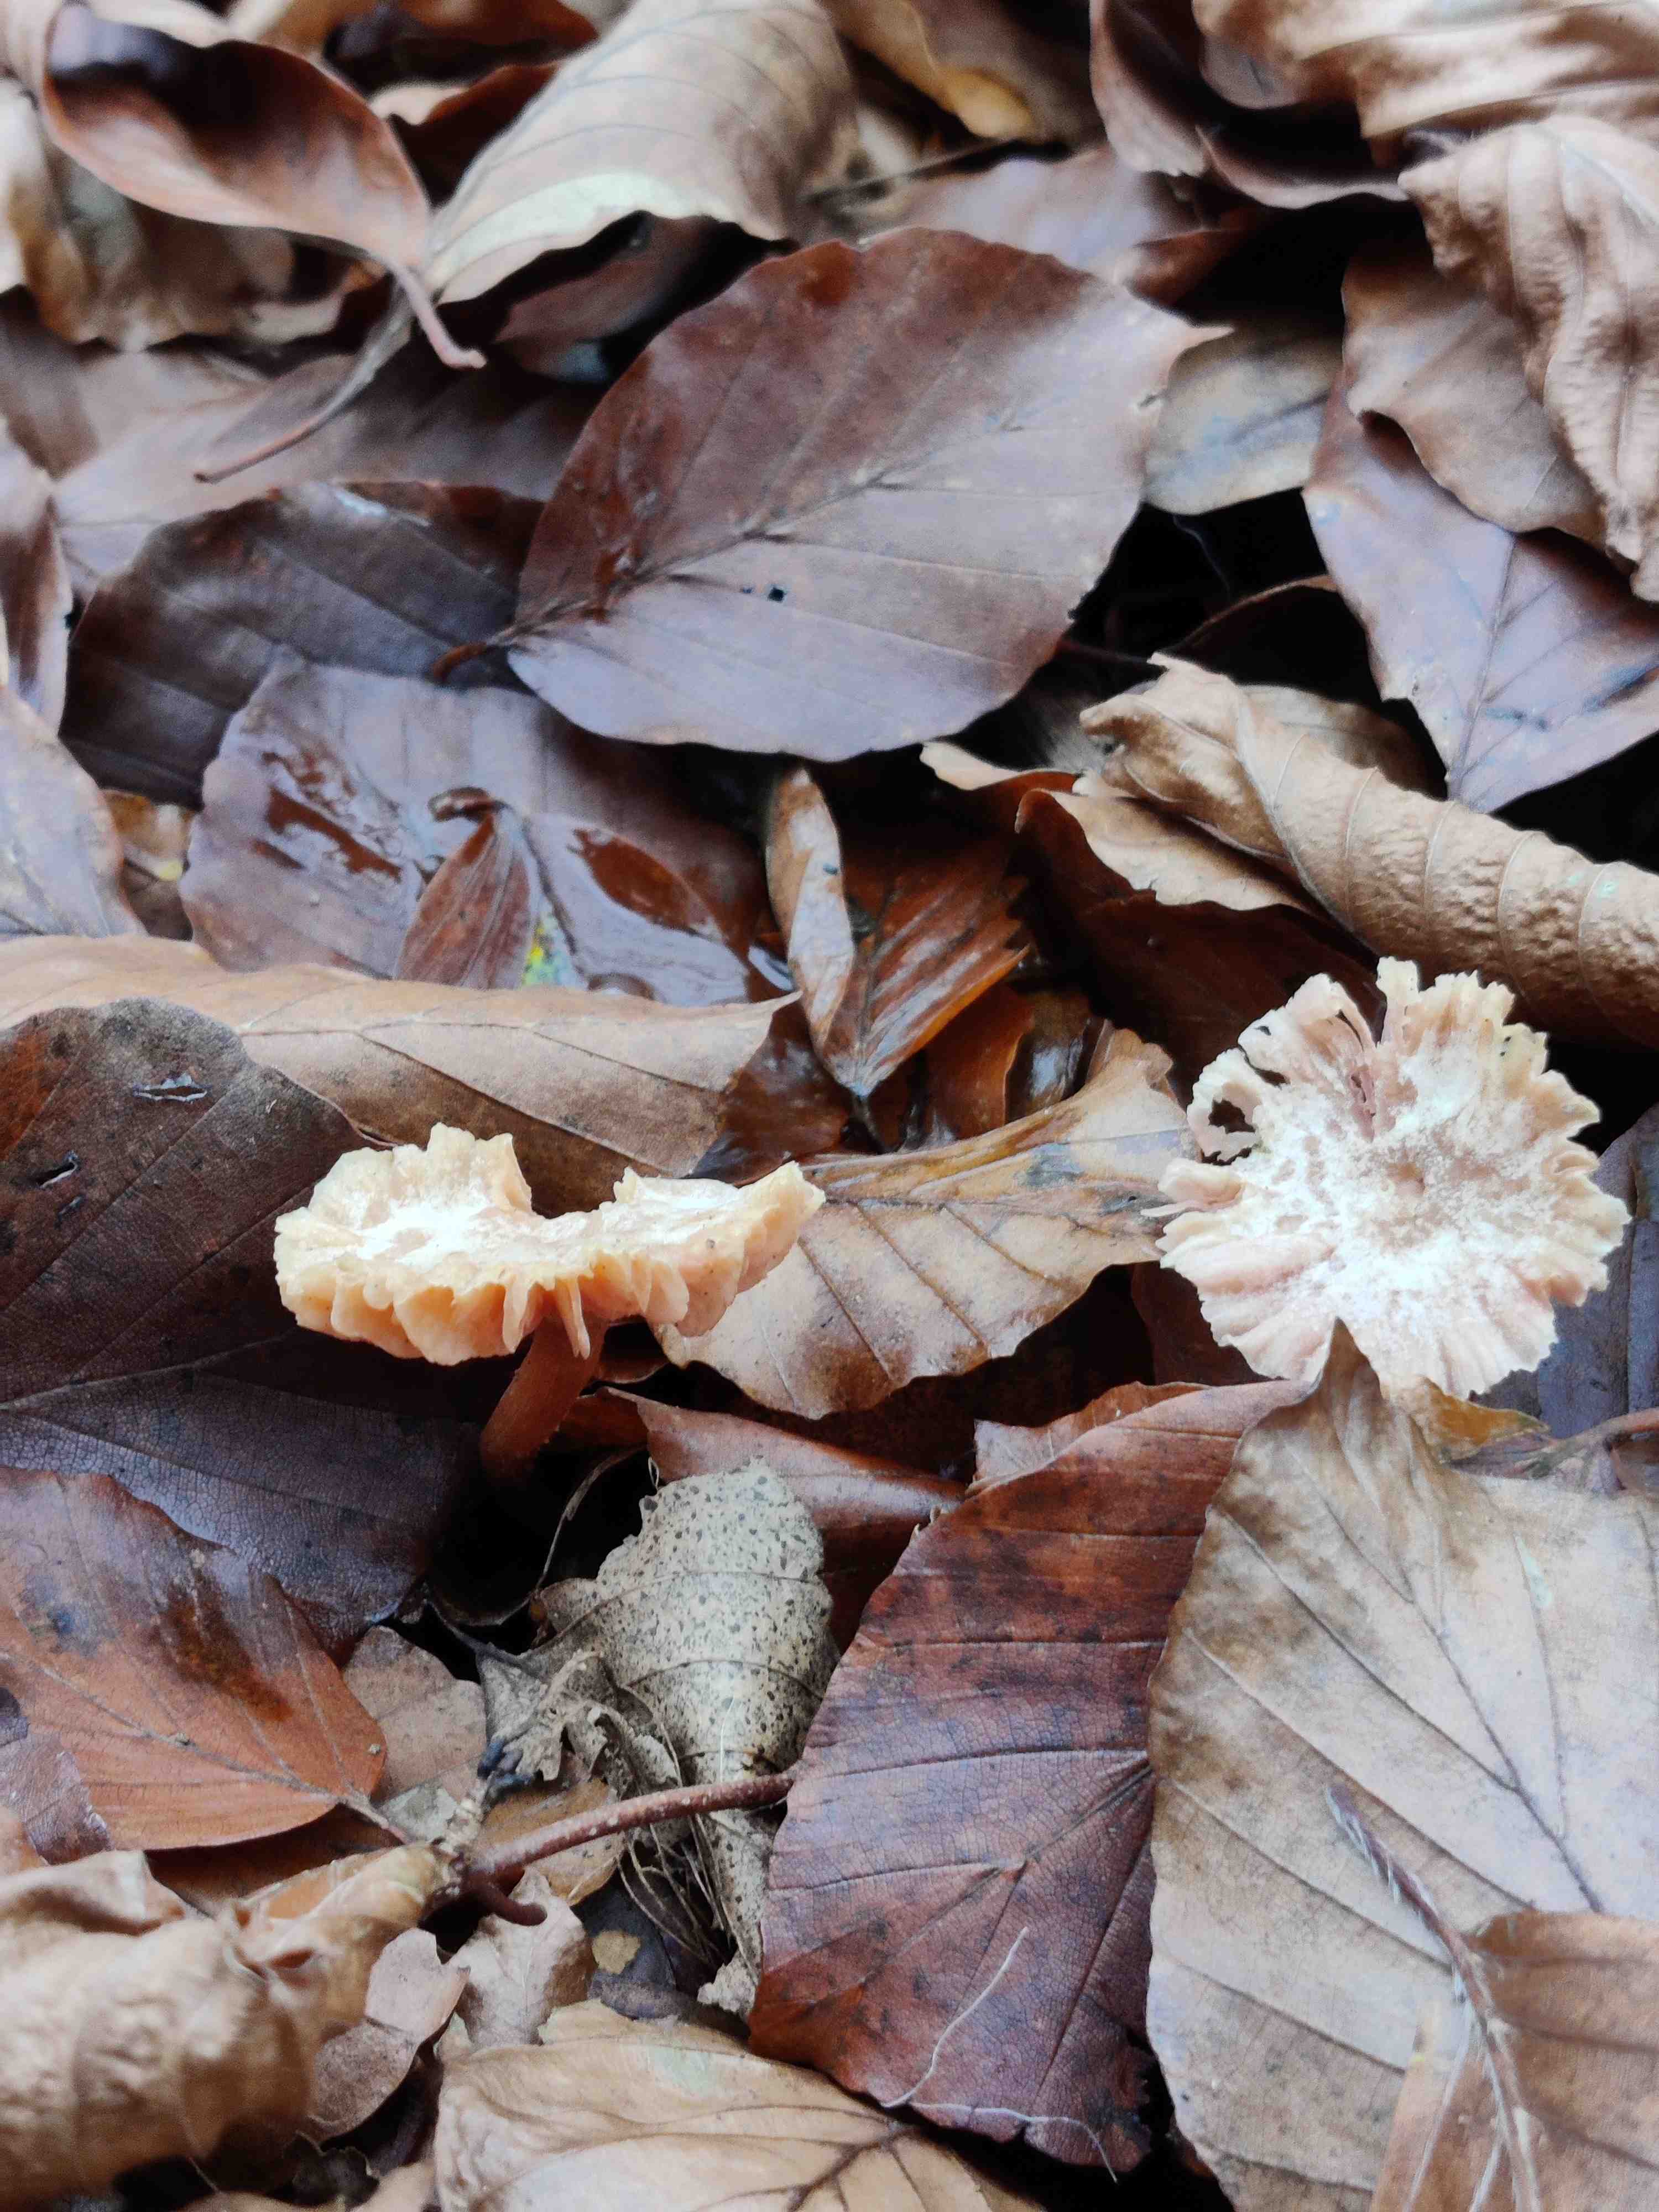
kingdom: Fungi
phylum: Basidiomycota
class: Agaricomycetes
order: Agaricales
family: Hydnangiaceae
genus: Laccaria
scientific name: Laccaria laccata
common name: rød ametysthat
